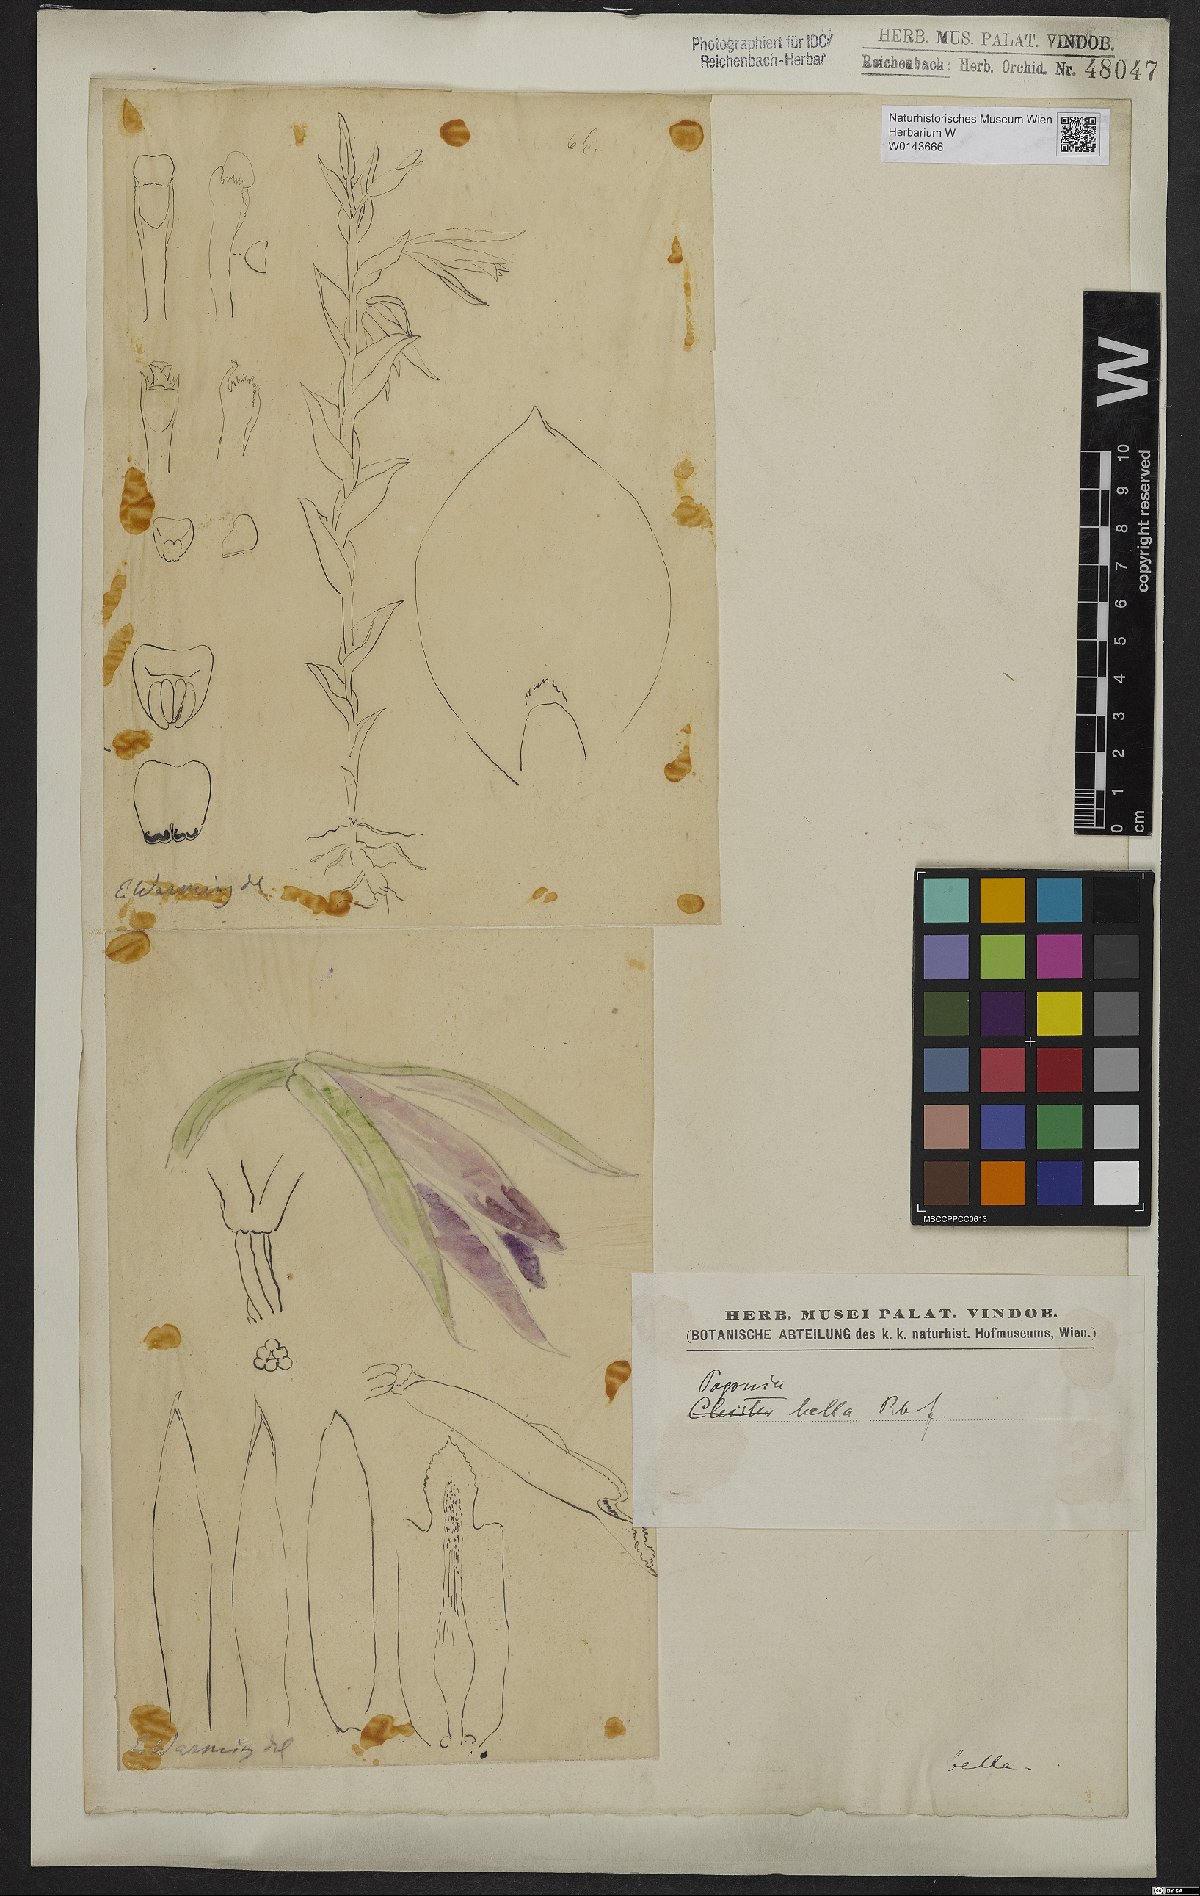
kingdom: Plantae
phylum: Tracheophyta
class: Liliopsida
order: Asparagales
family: Orchidaceae
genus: Cleistes
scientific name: Cleistes bella
